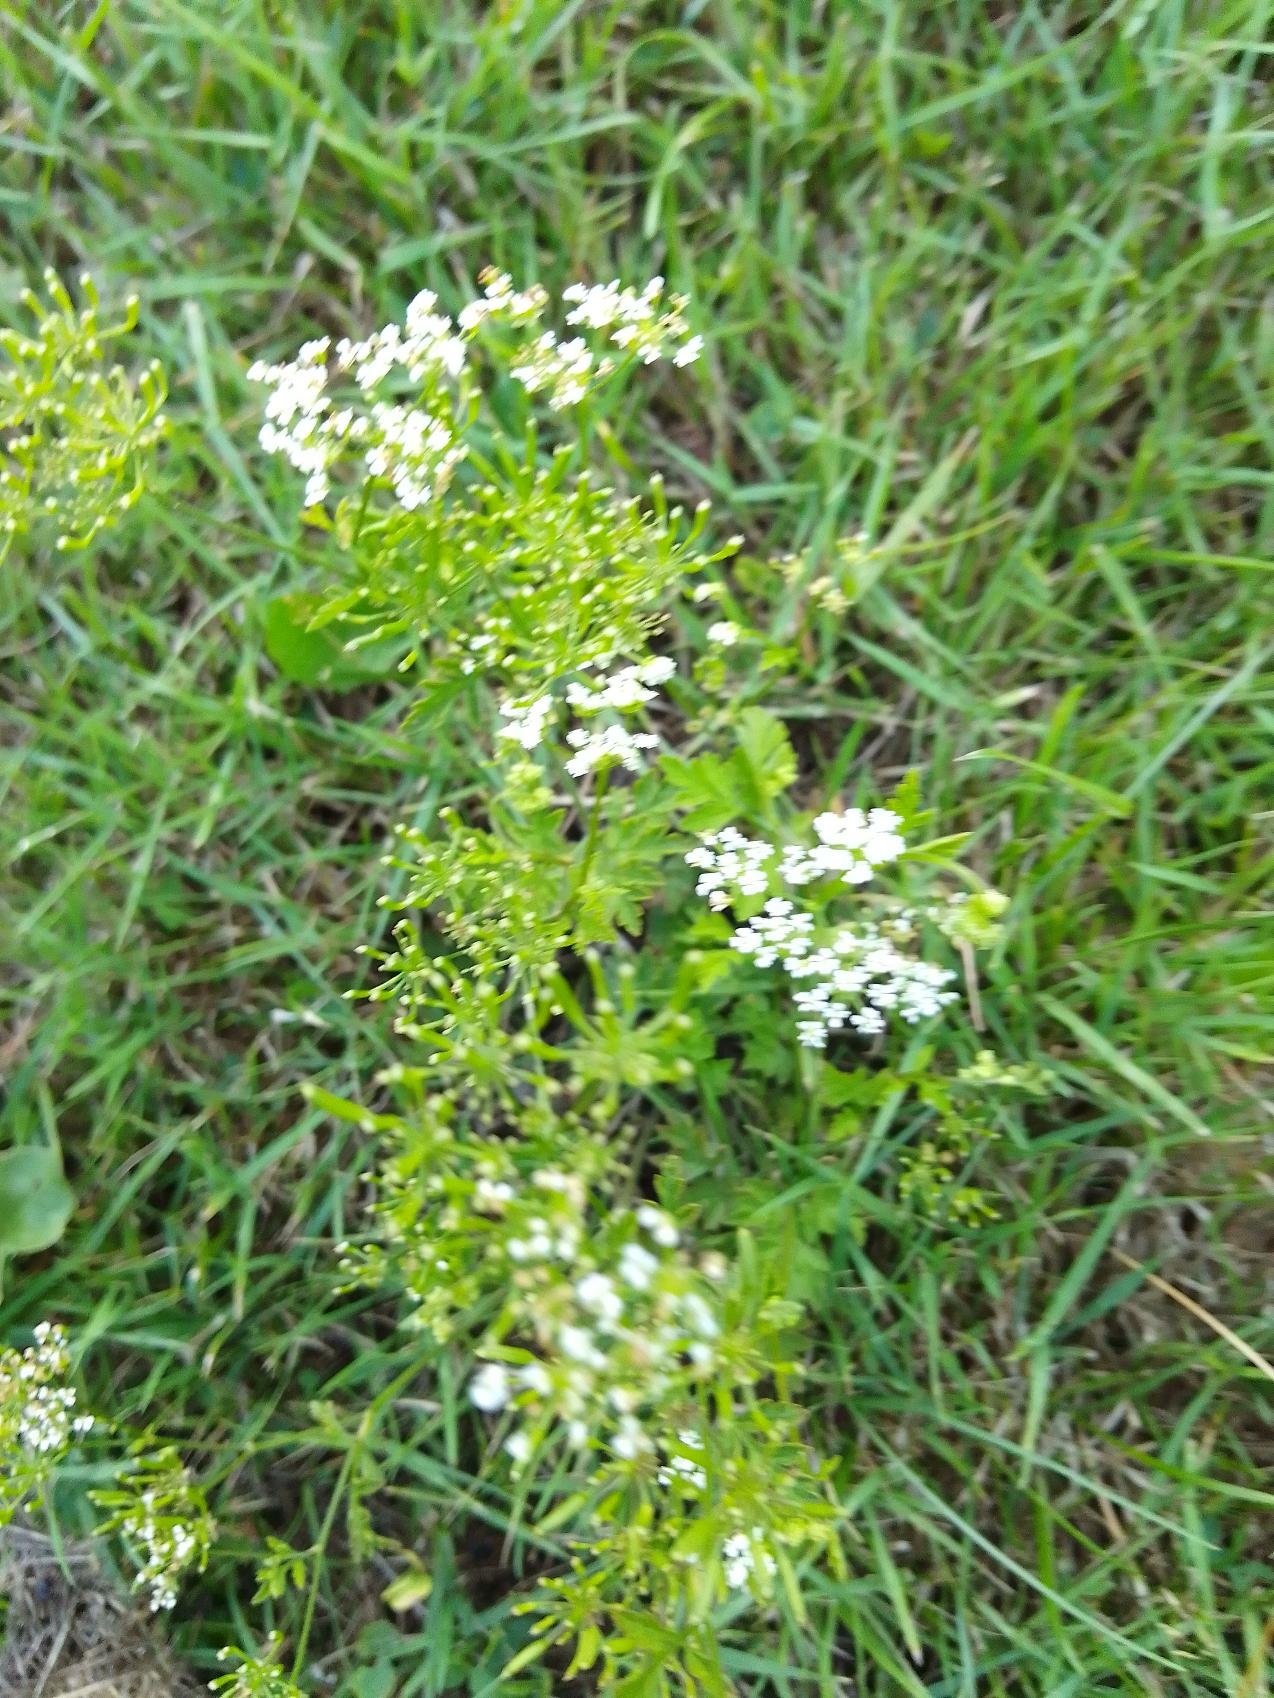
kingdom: Plantae
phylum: Tracheophyta
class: Magnoliopsida
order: Apiales
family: Apiaceae
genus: Chaerophyllum
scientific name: Chaerophyllum temulum
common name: Almindelig hulsvøb
